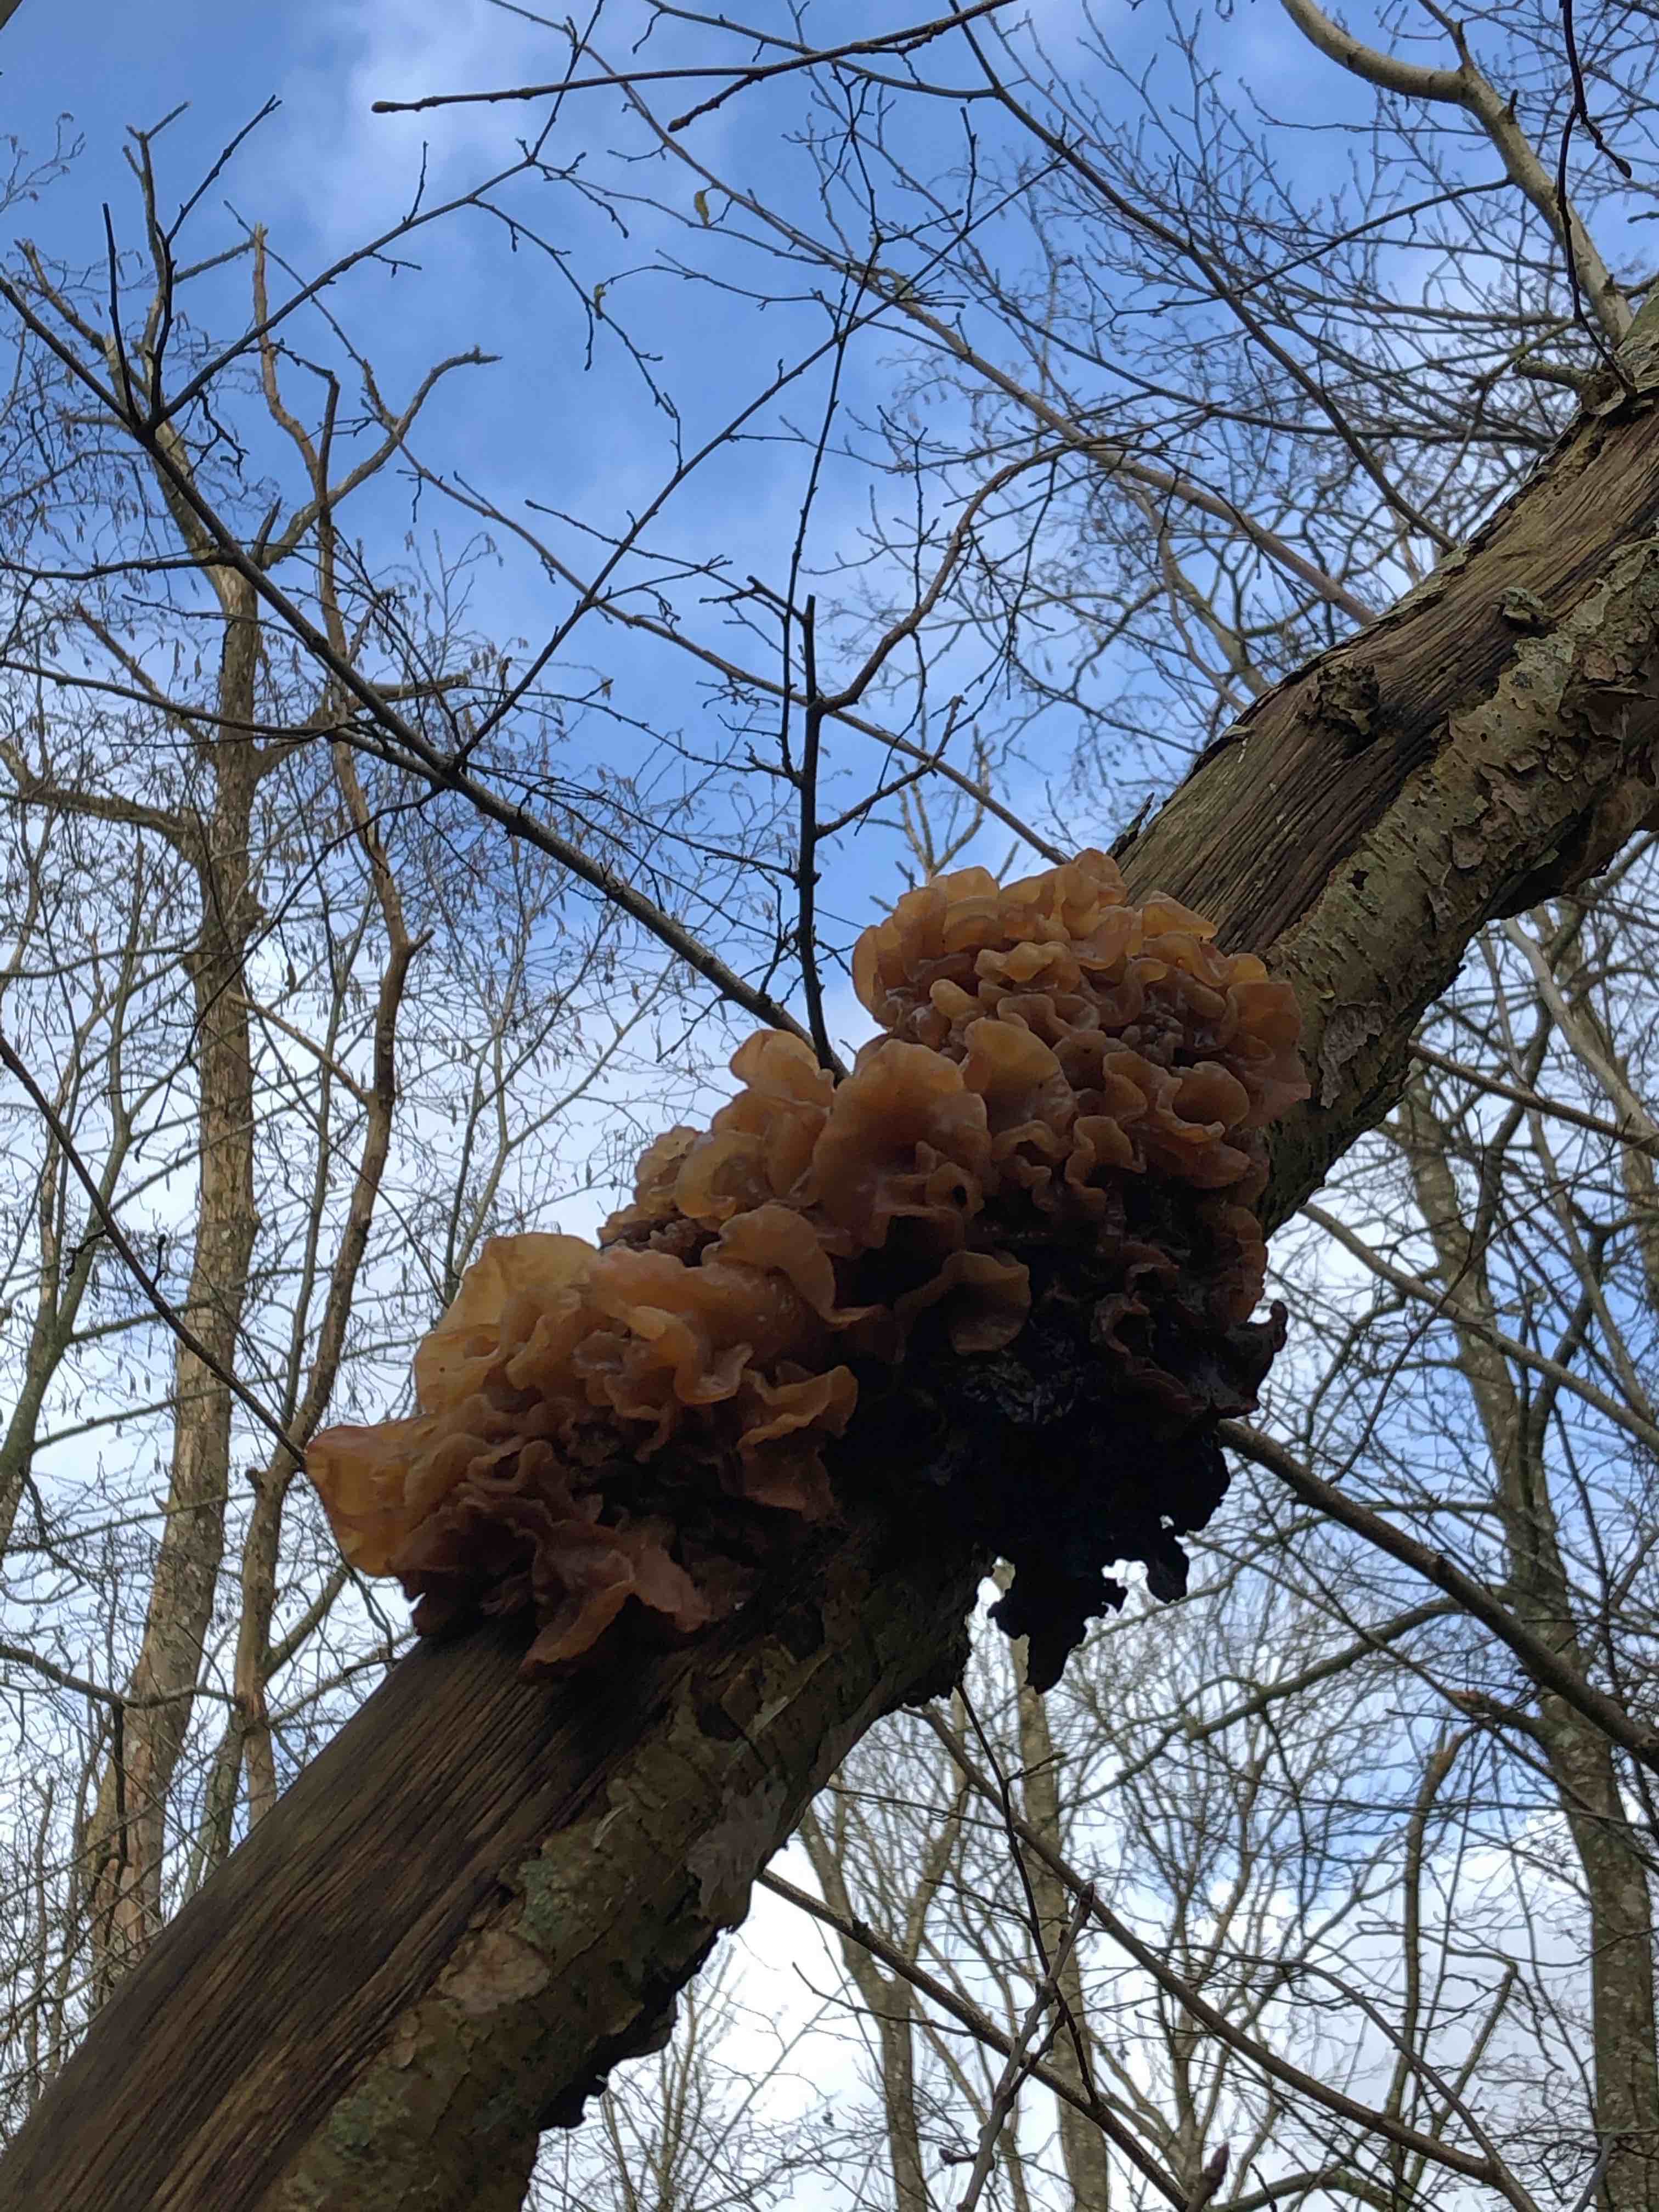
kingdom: Fungi
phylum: Basidiomycota
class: Tremellomycetes
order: Tremellales
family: Tremellaceae
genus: Phaeotremella
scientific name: Phaeotremella frondosa
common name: kæmpe-bævresvamp
